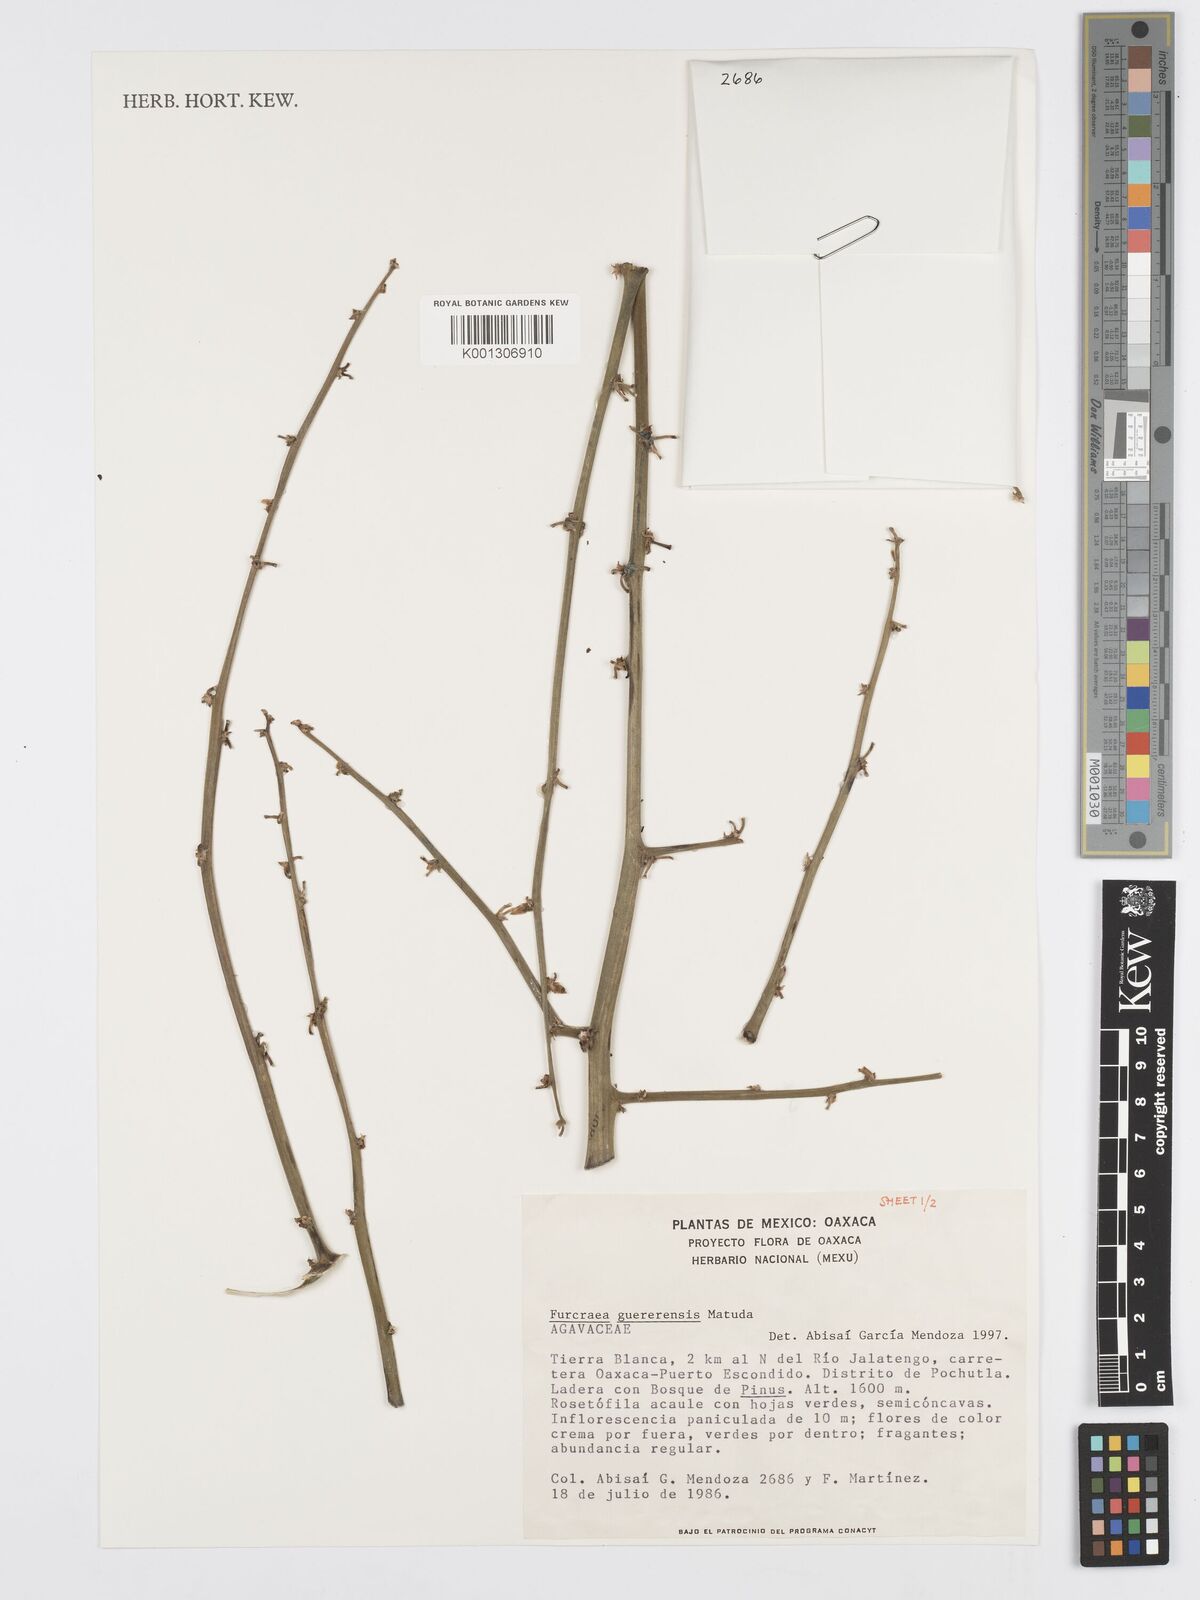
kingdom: Plantae
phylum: Tracheophyta
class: Liliopsida
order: Asparagales
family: Asparagaceae
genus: Furcraea
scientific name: Furcraea guerrerensis
